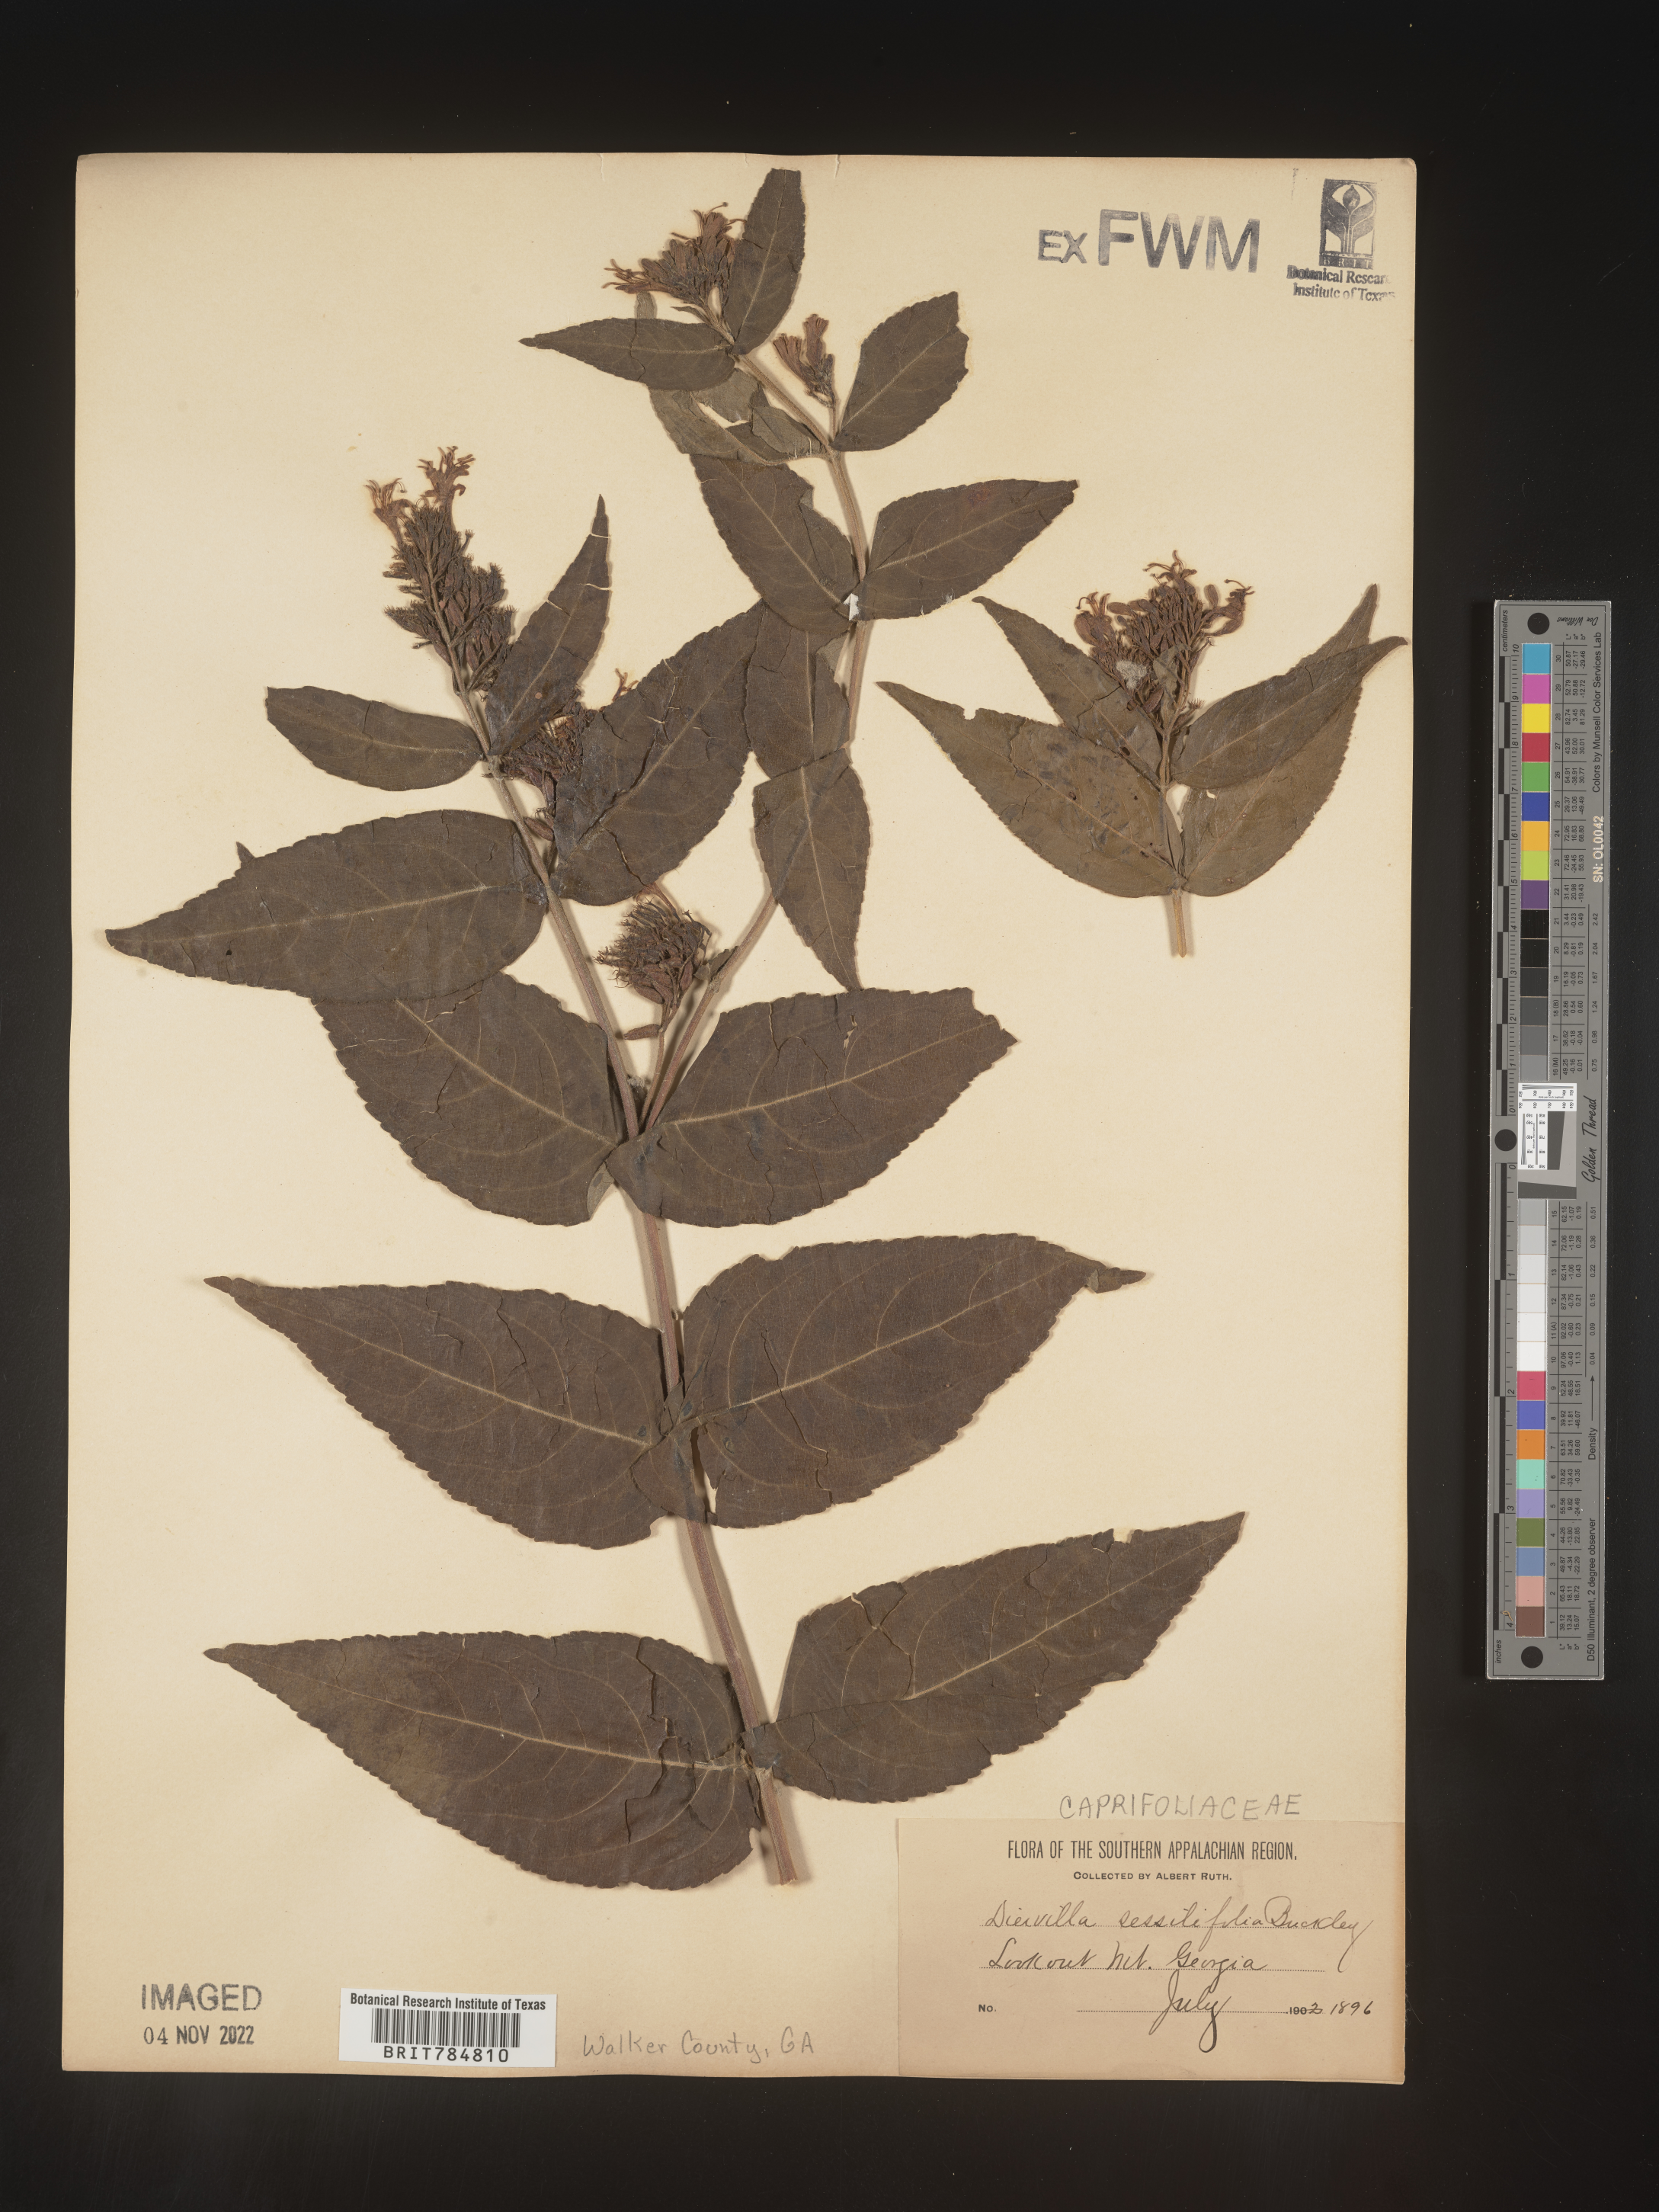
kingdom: Plantae
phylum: Tracheophyta
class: Magnoliopsida
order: Dipsacales
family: Caprifoliaceae
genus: Diervilla
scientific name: Diervilla
